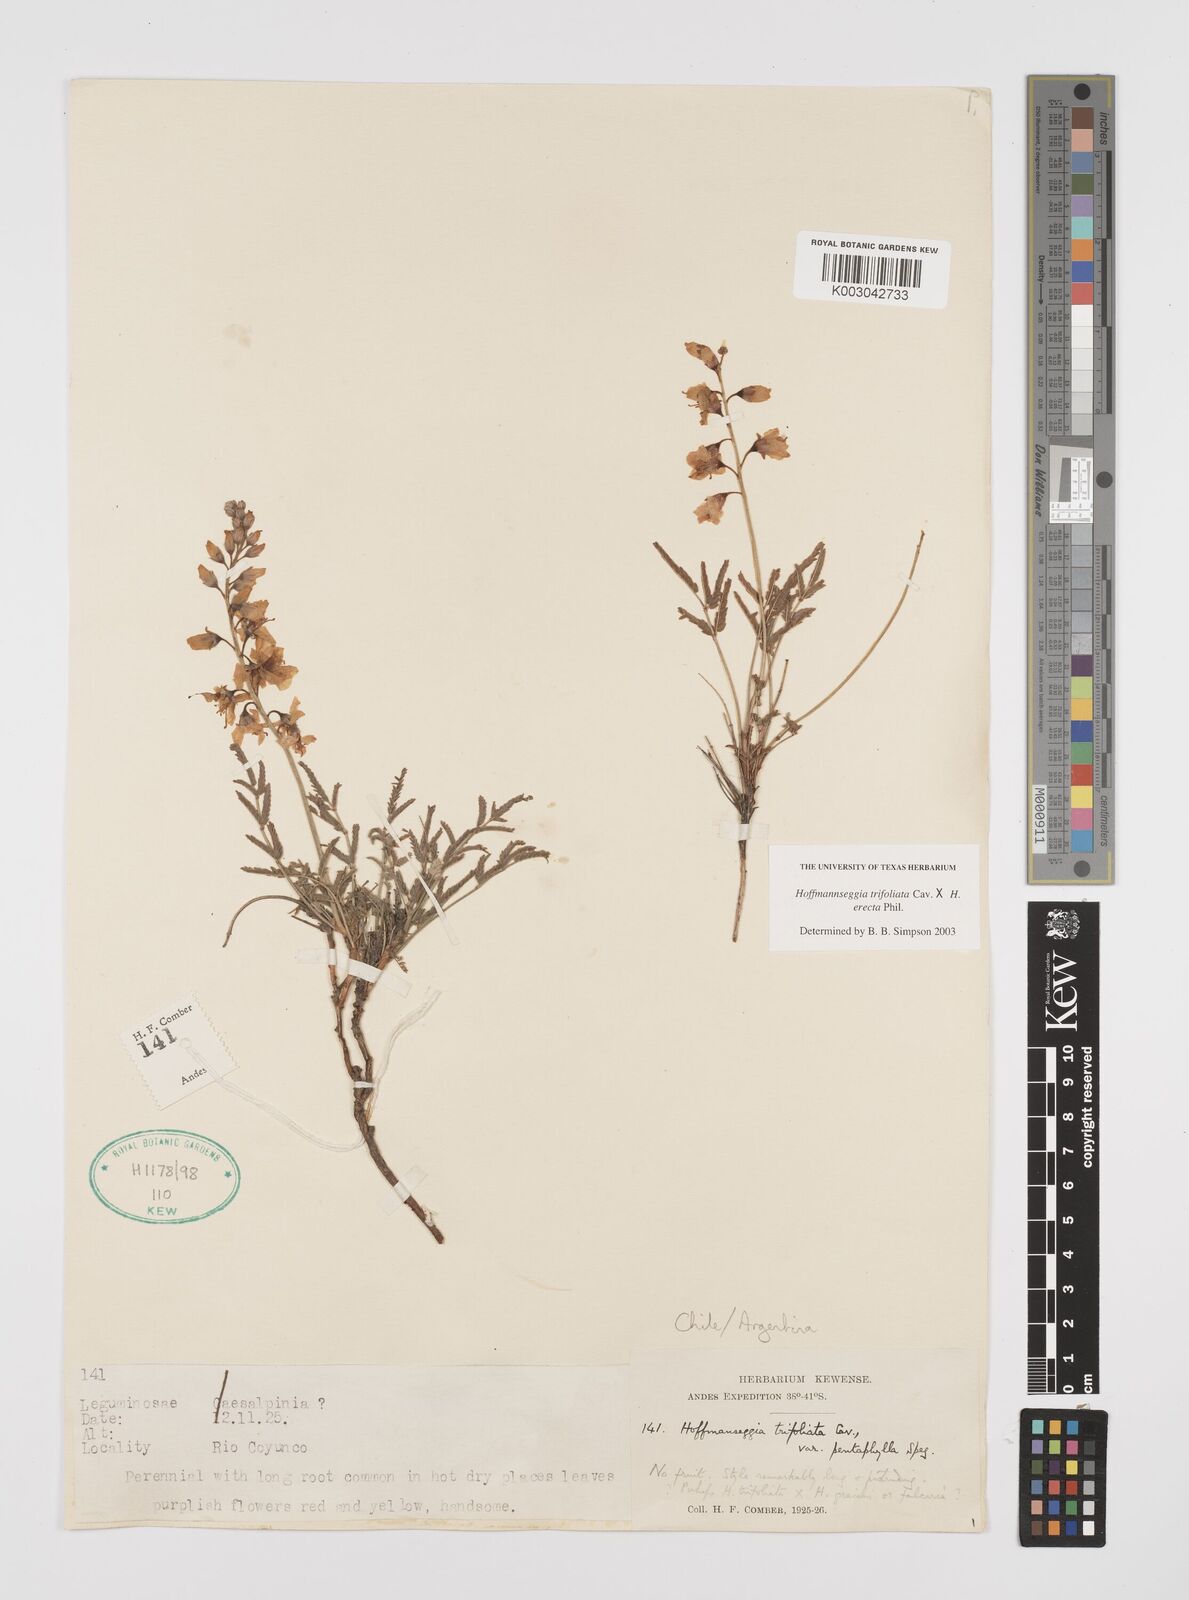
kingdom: Plantae
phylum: Tracheophyta
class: Magnoliopsida
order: Fabales
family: Fabaceae
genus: Hoffmannseggia
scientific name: Hoffmannseggia trifoliata
